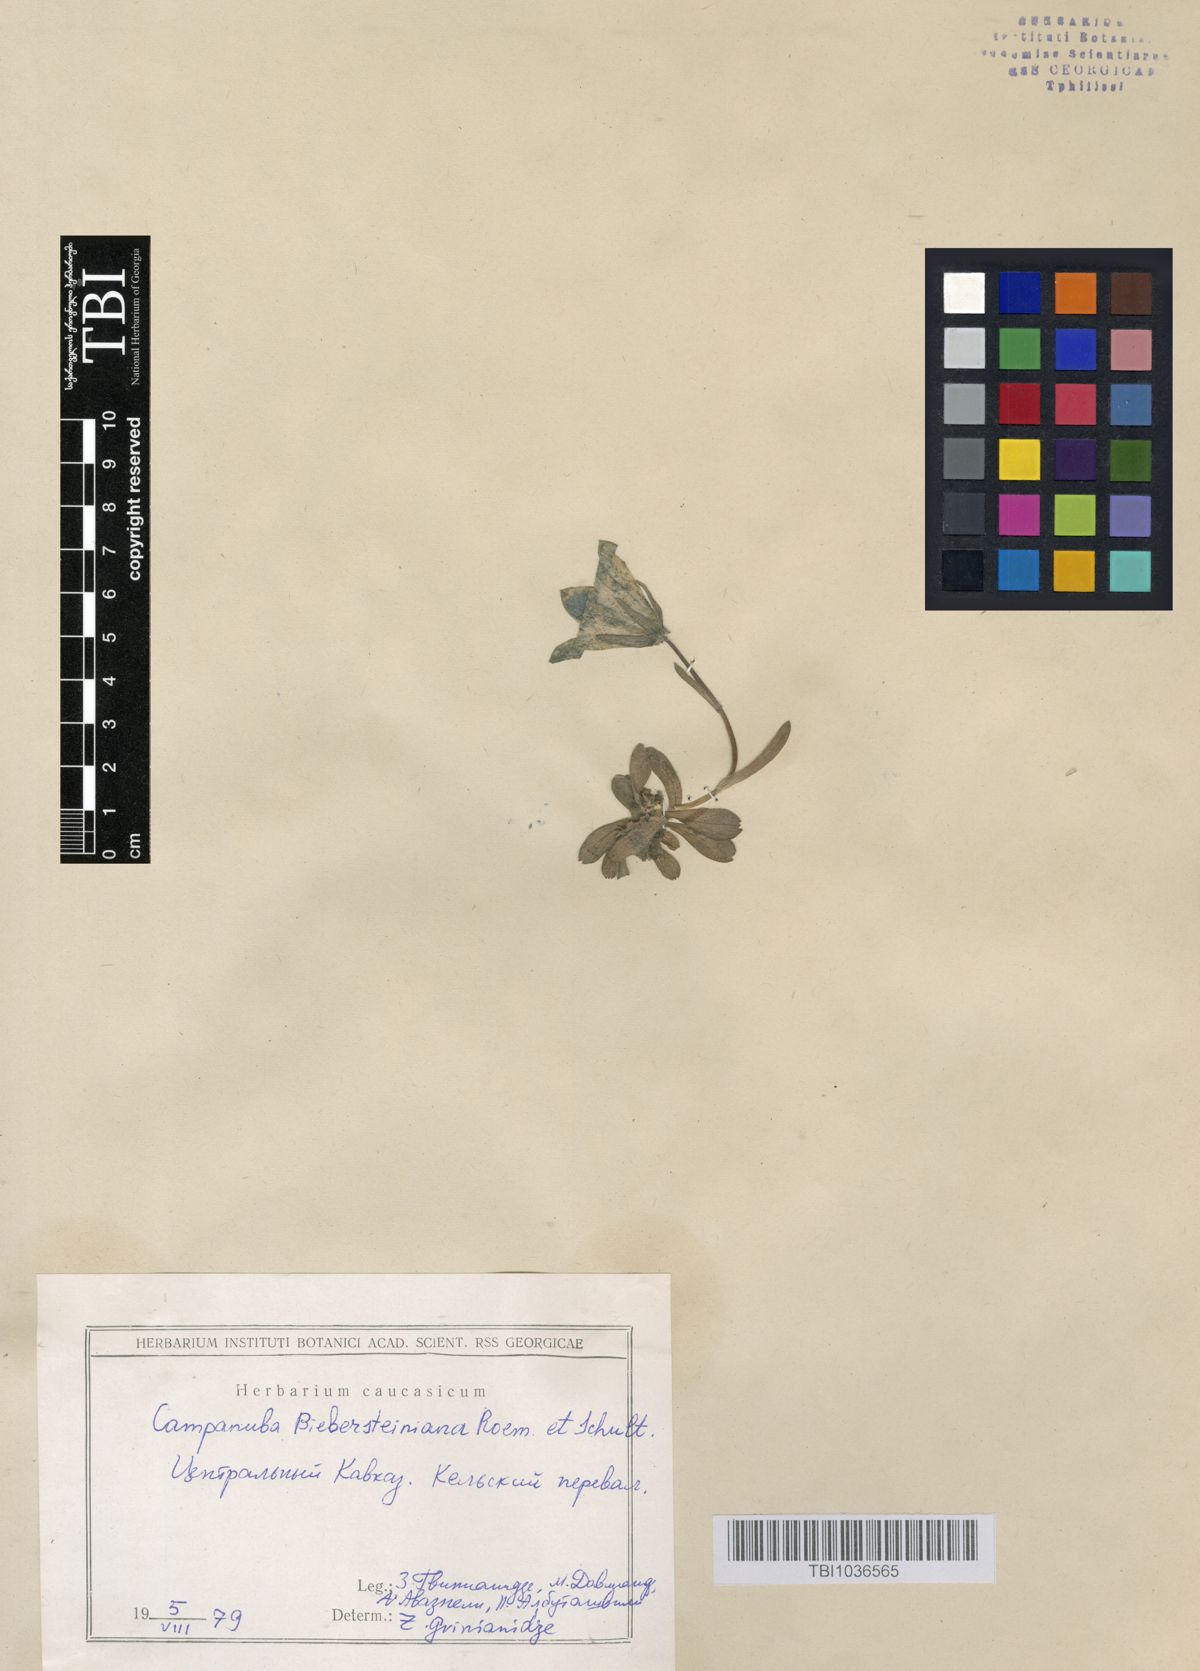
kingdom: Plantae
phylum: Tracheophyta
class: Magnoliopsida
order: Asterales
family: Campanulaceae
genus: Campanula
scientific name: Campanula tridentata
